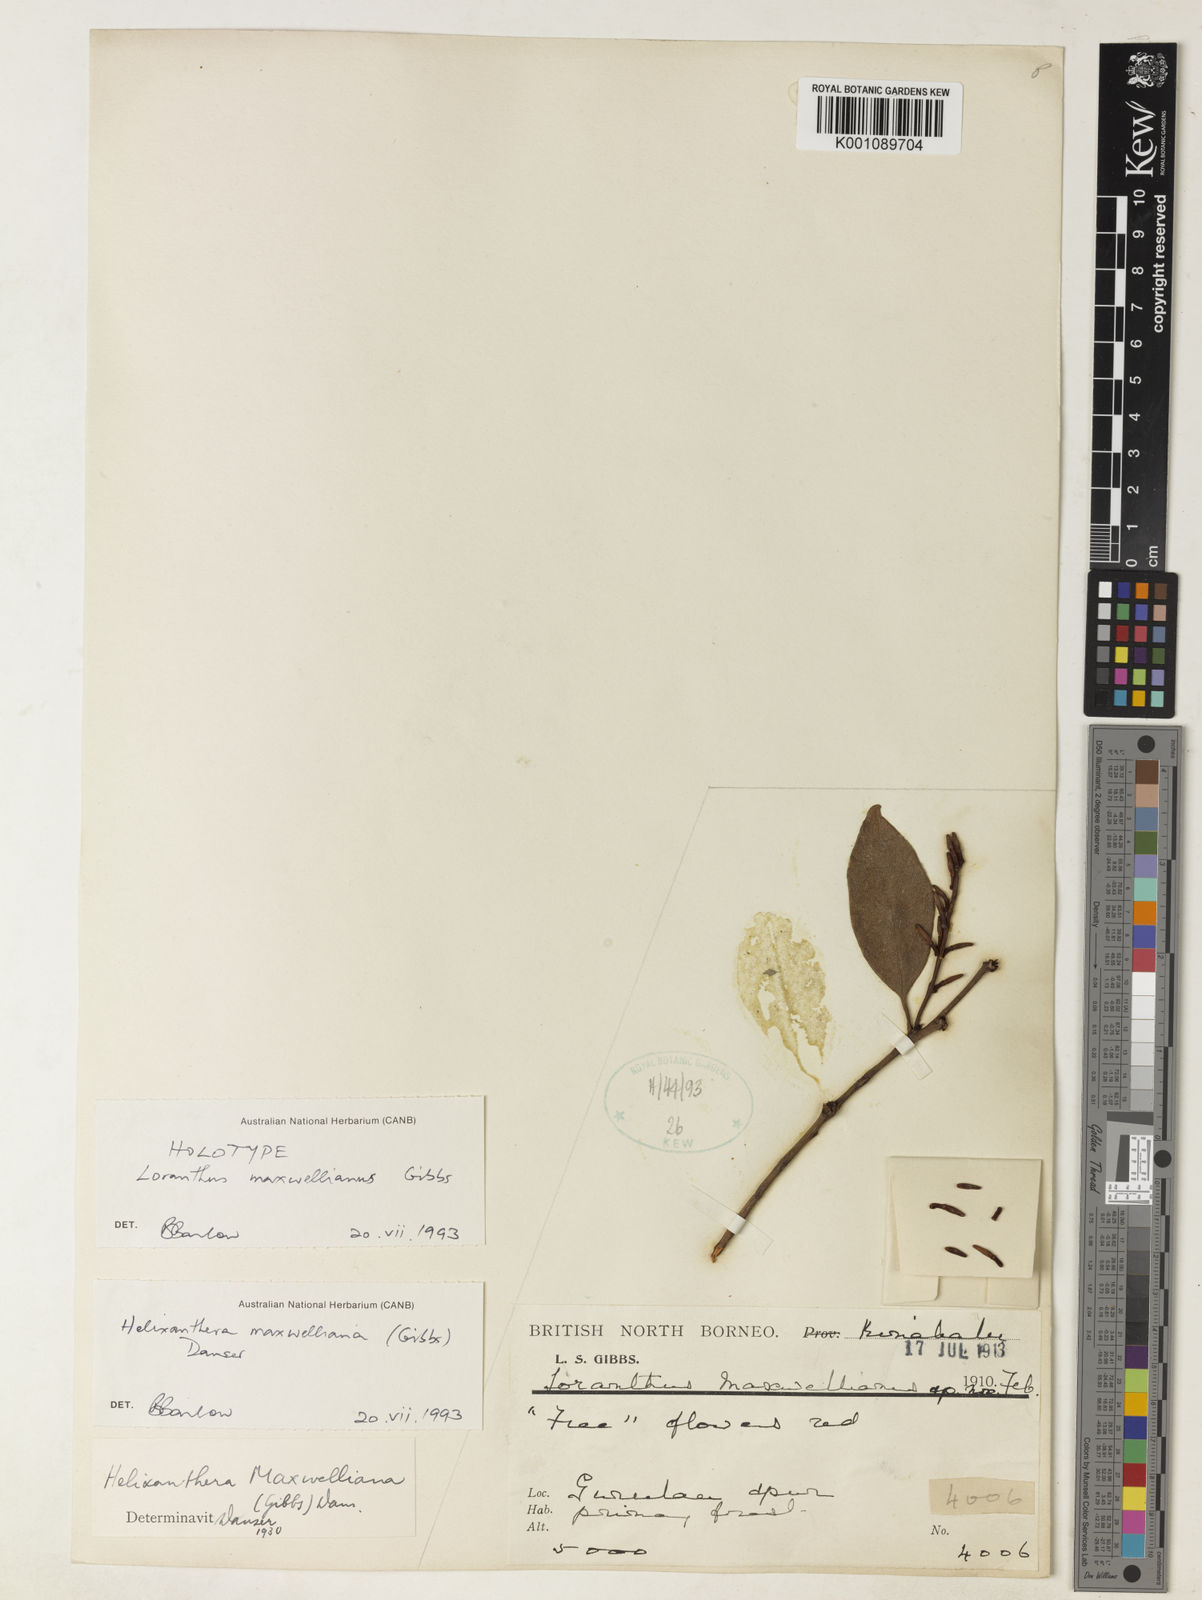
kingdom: Plantae
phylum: Tracheophyta
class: Magnoliopsida
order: Santalales
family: Loranthaceae
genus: Helixanthera
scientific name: Helixanthera maxwelliana
